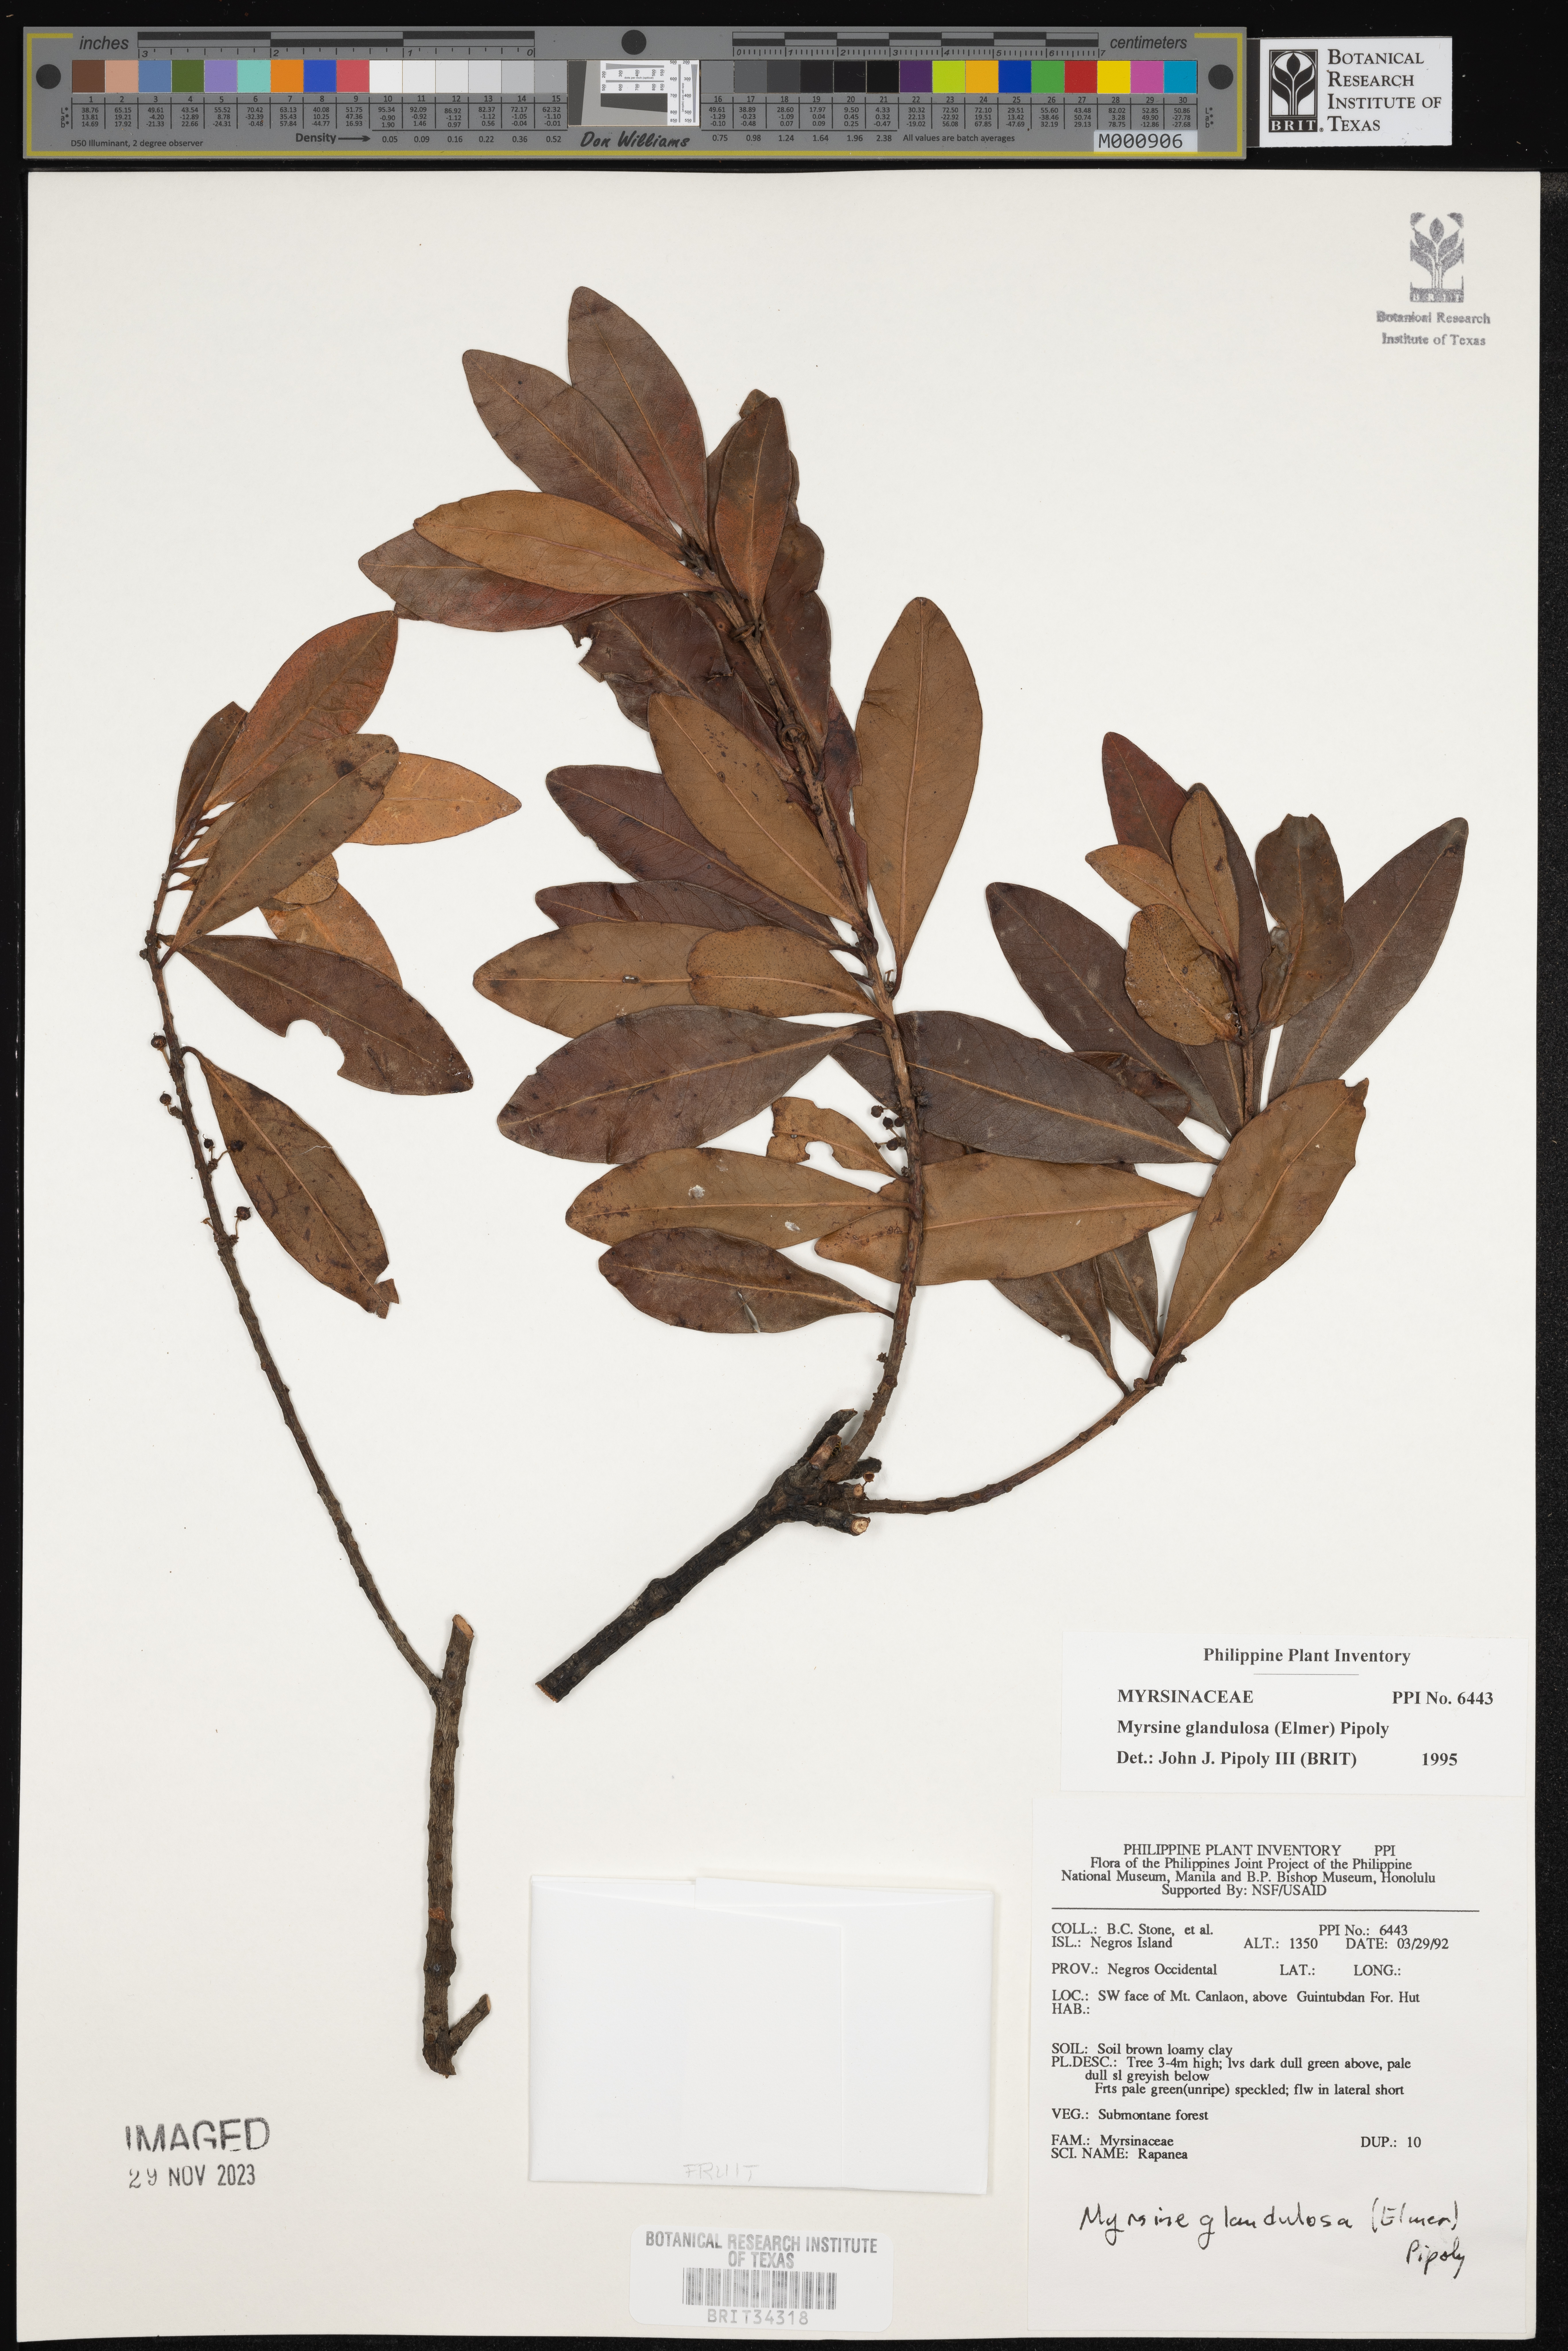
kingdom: Plantae
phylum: Tracheophyta
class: Magnoliopsida
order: Ericales
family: Primulaceae
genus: Myrsine
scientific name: Myrsine glandulosa
